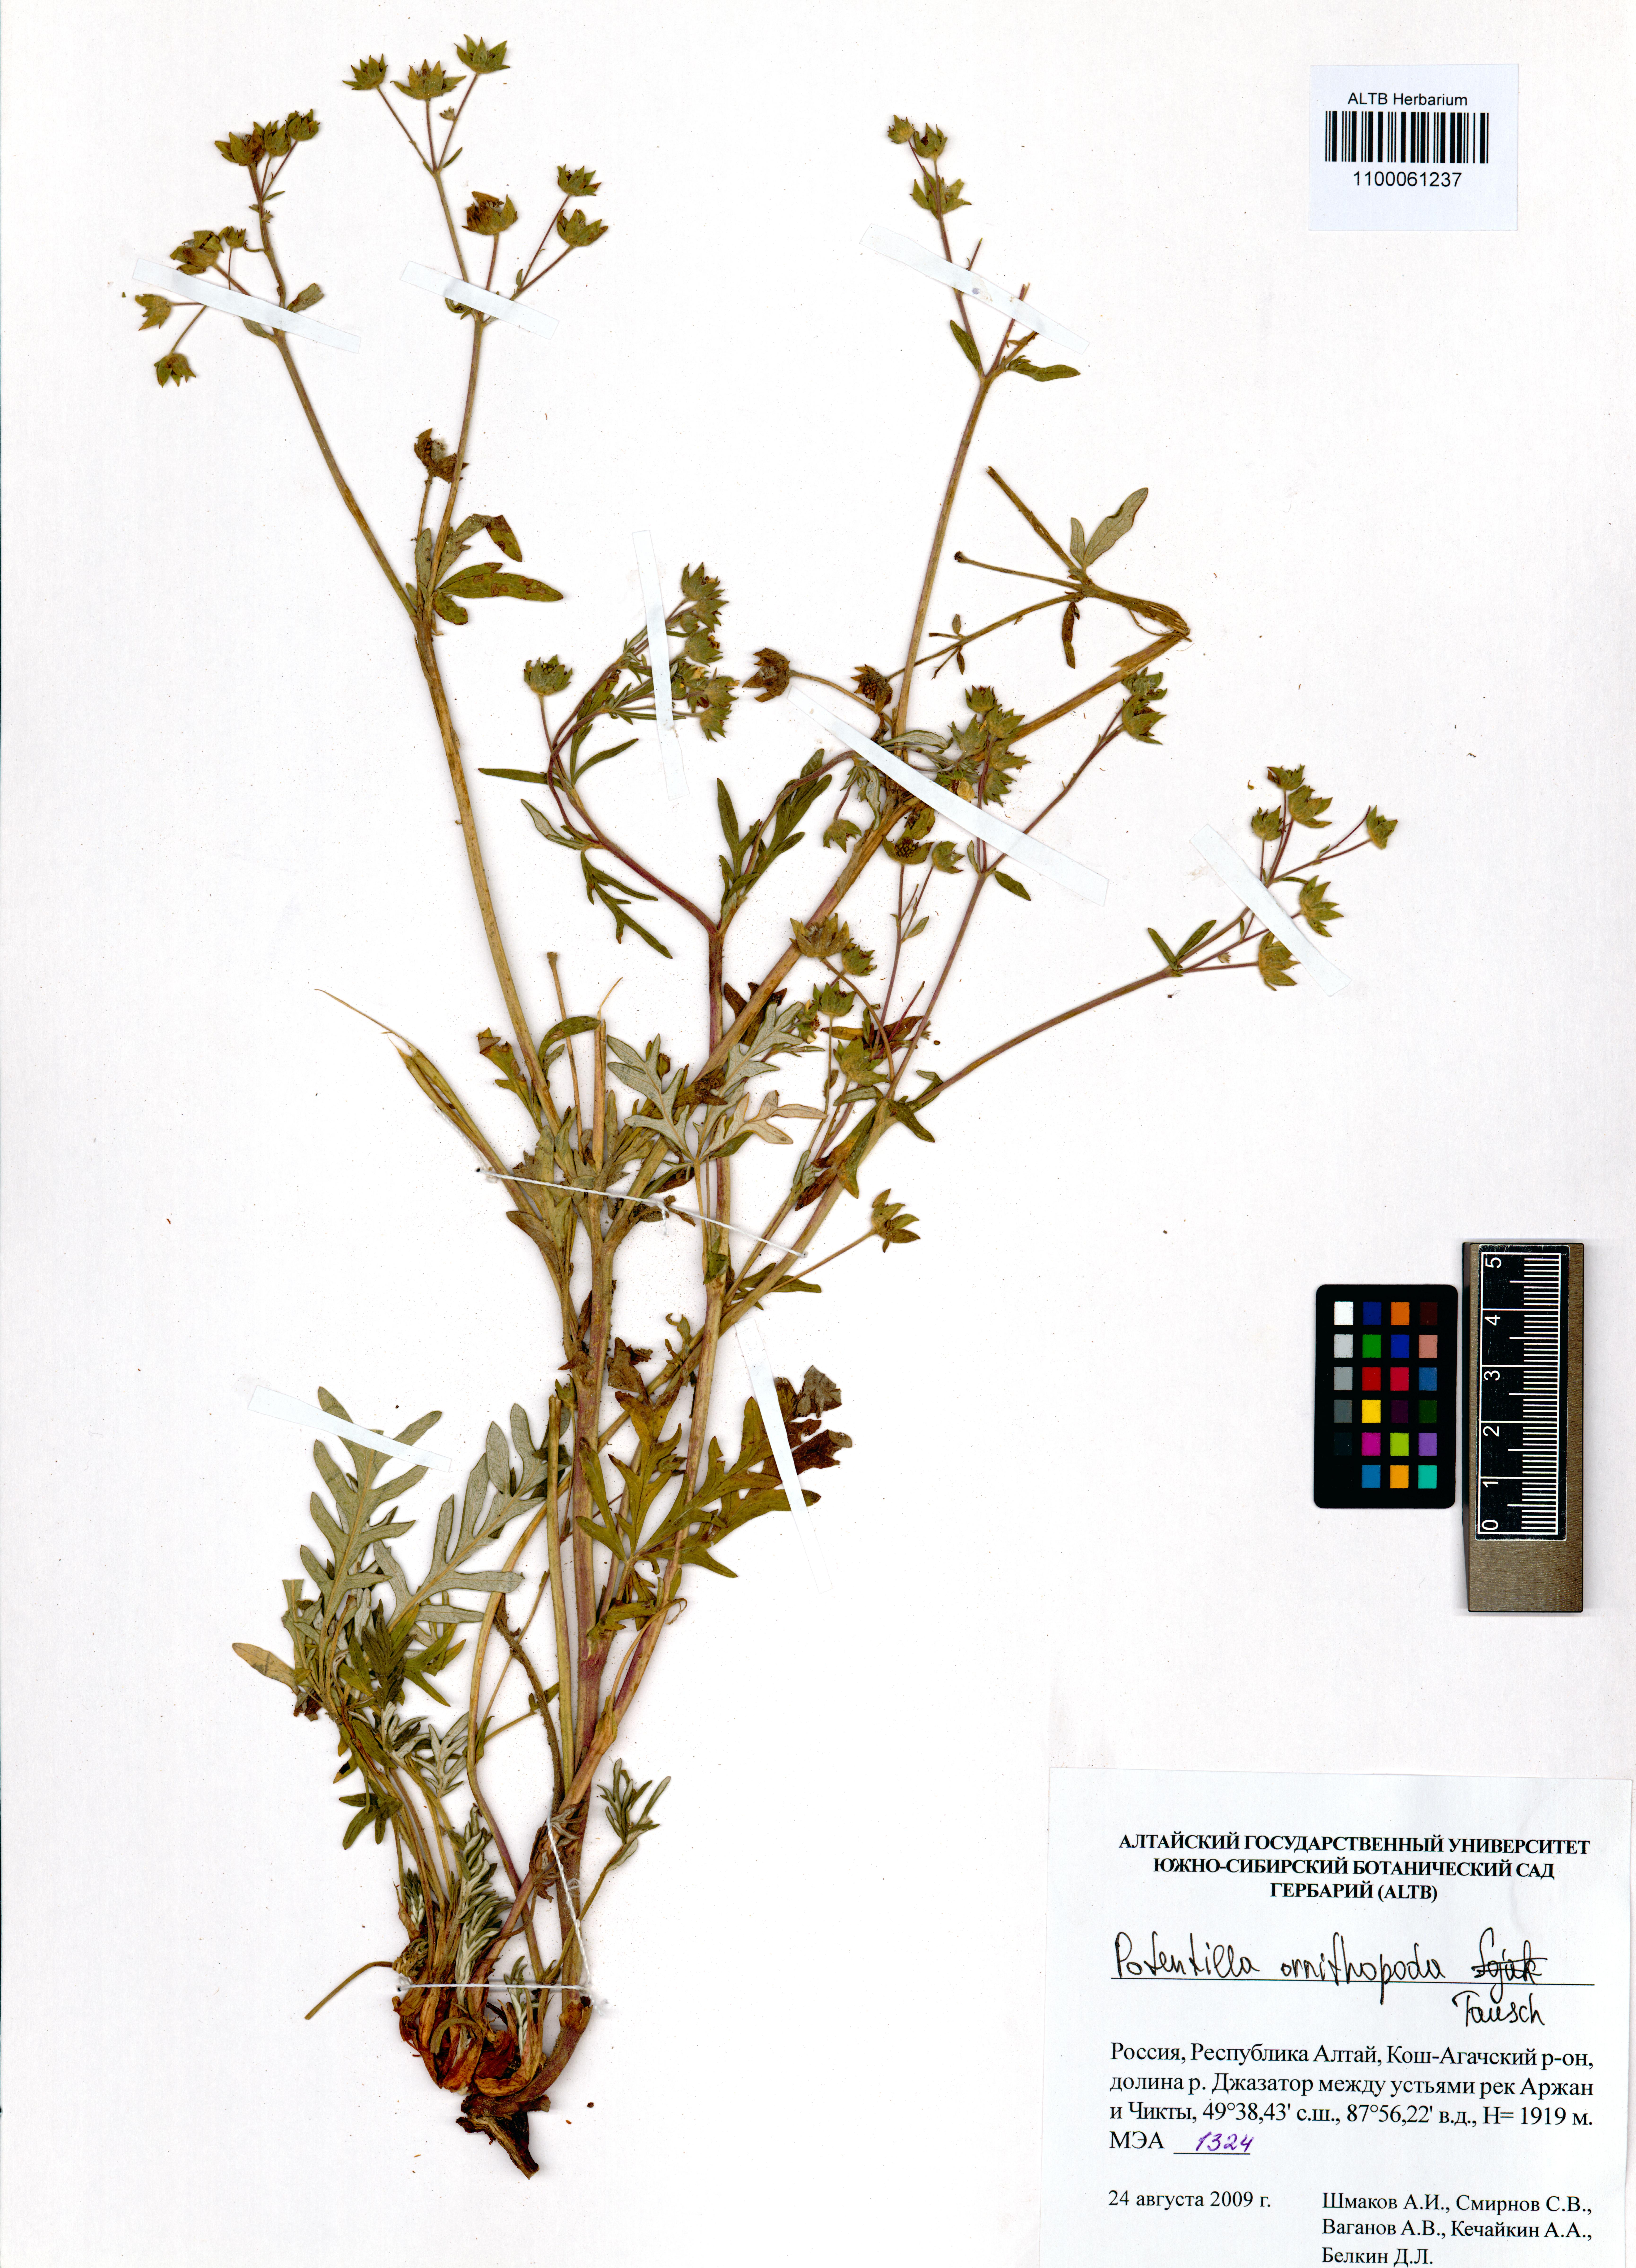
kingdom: Plantae
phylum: Tracheophyta
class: Magnoliopsida
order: Rosales
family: Rosaceae
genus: Potentilla
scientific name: Potentilla ornithopoda
